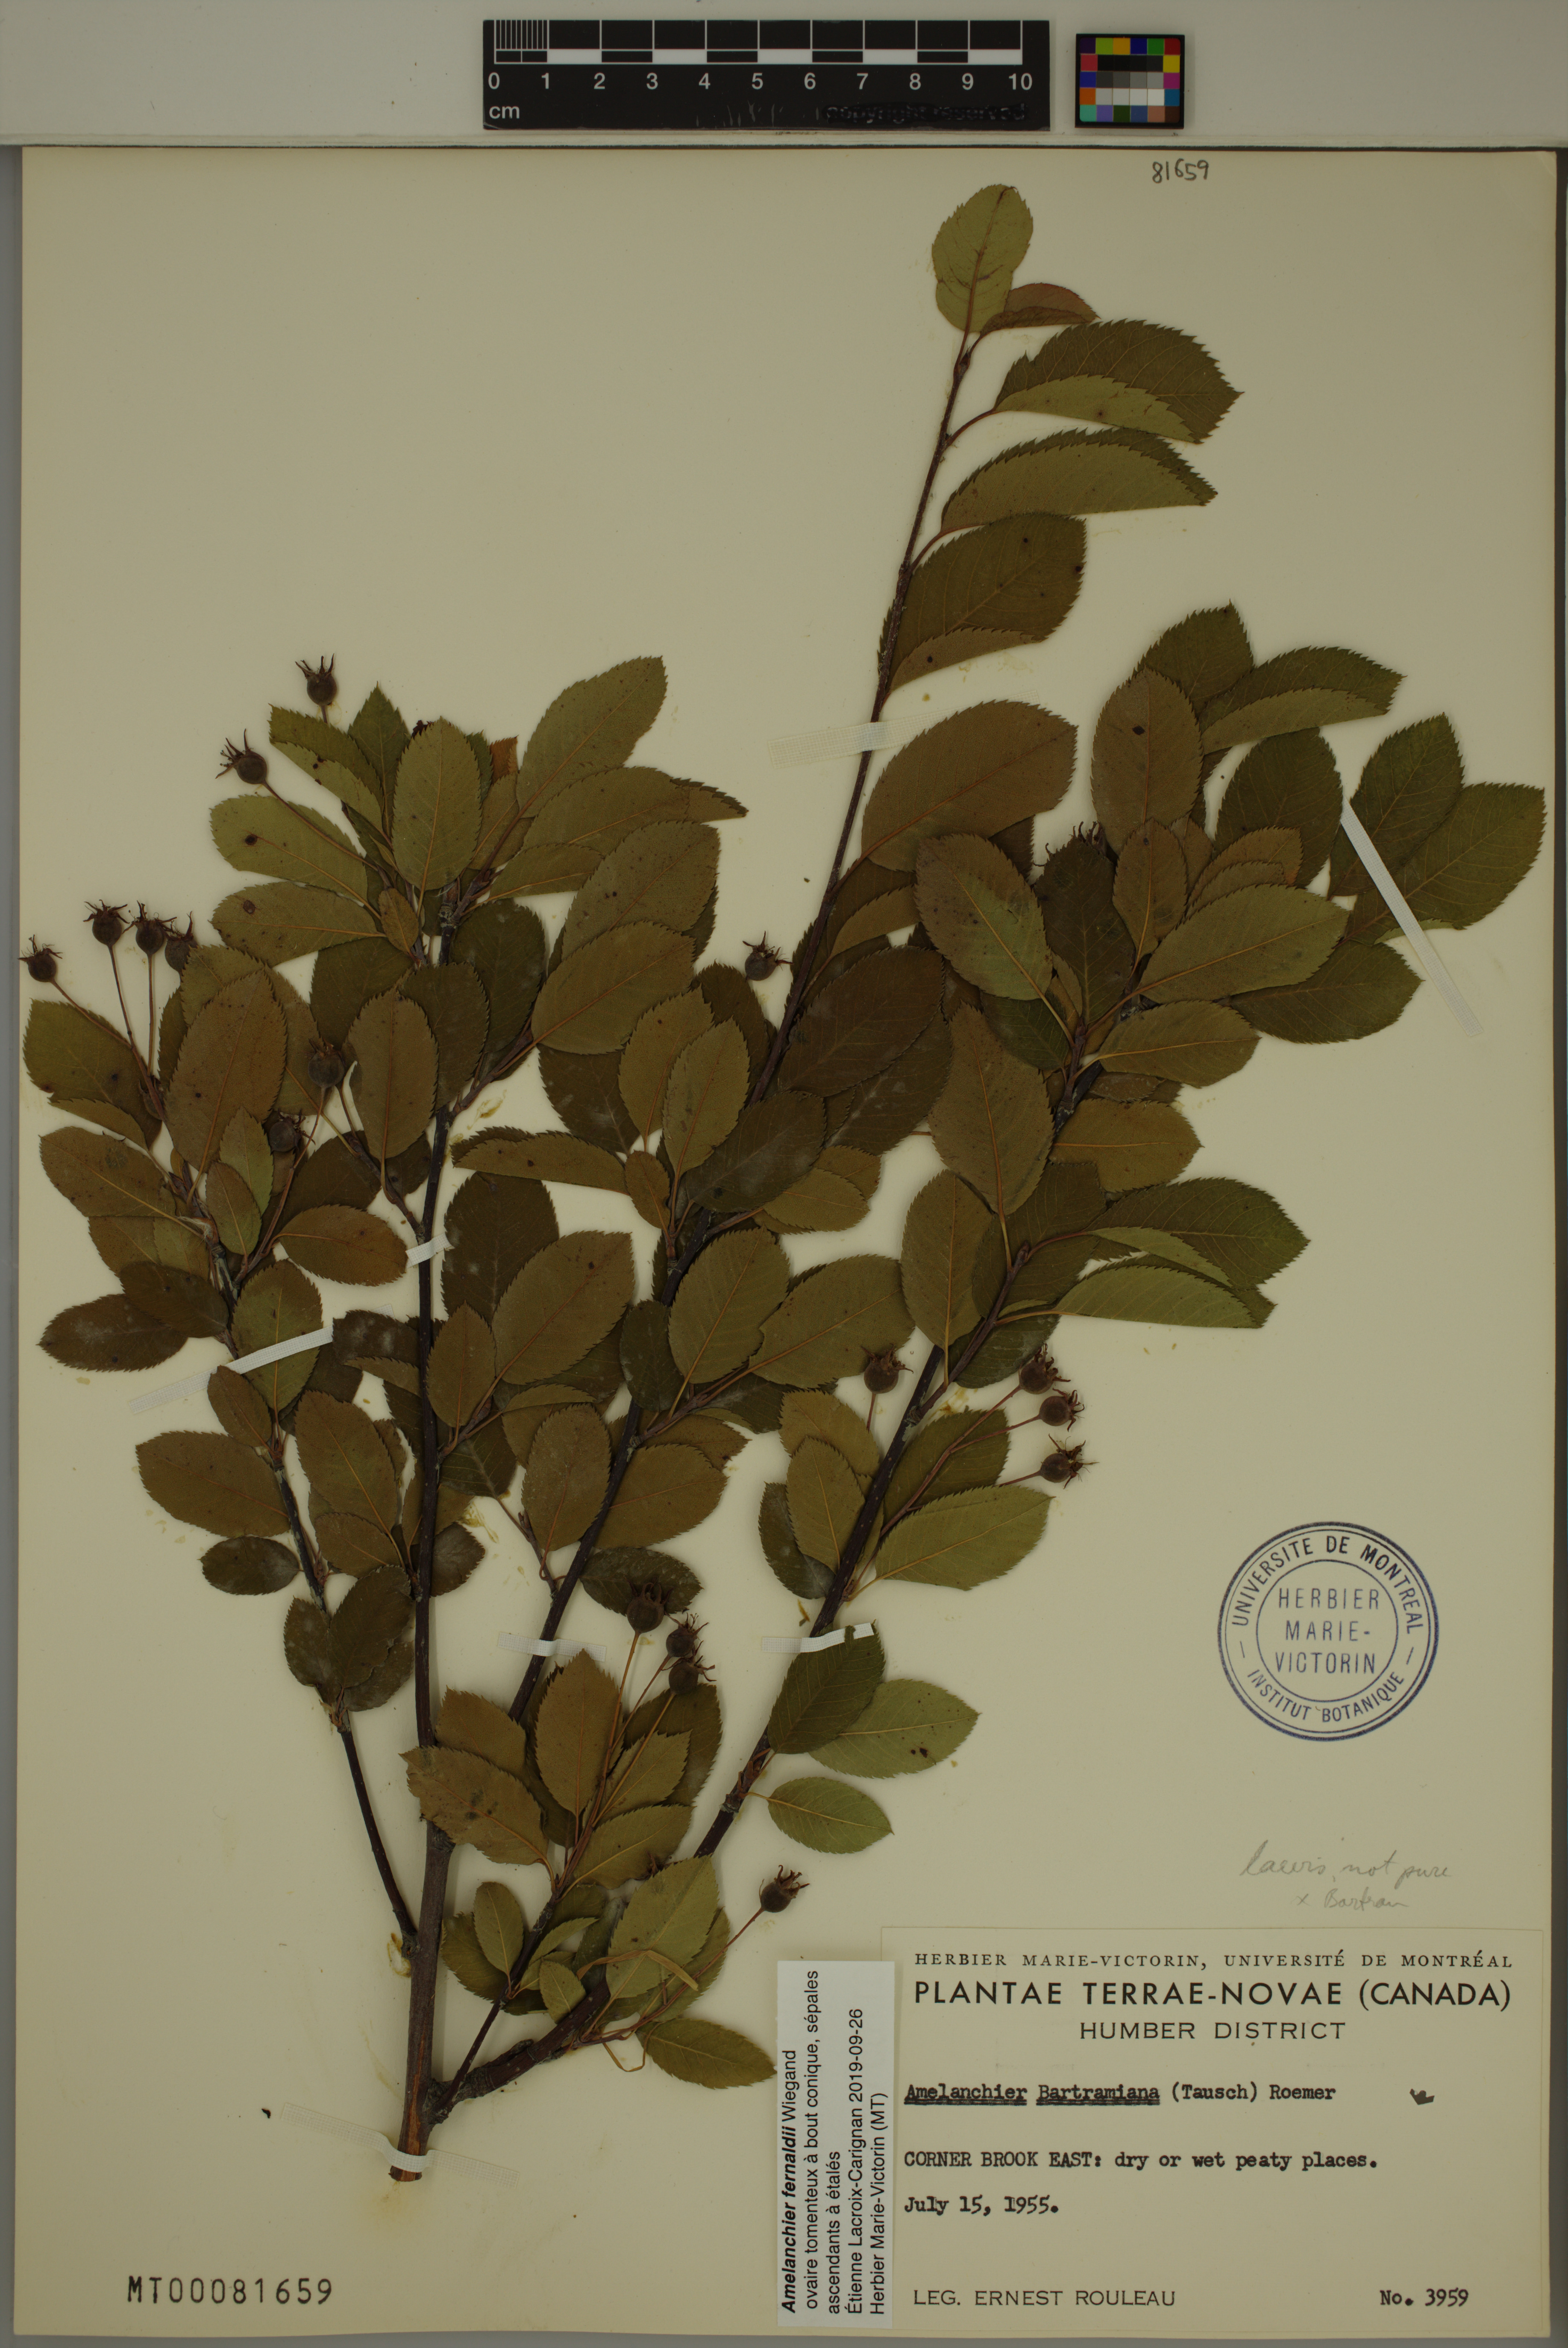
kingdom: Plantae
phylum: Tracheophyta
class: Magnoliopsida
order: Rosales
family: Rosaceae
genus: Amelanchier
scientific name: Amelanchier canadensis
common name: Thicket serviceberry
